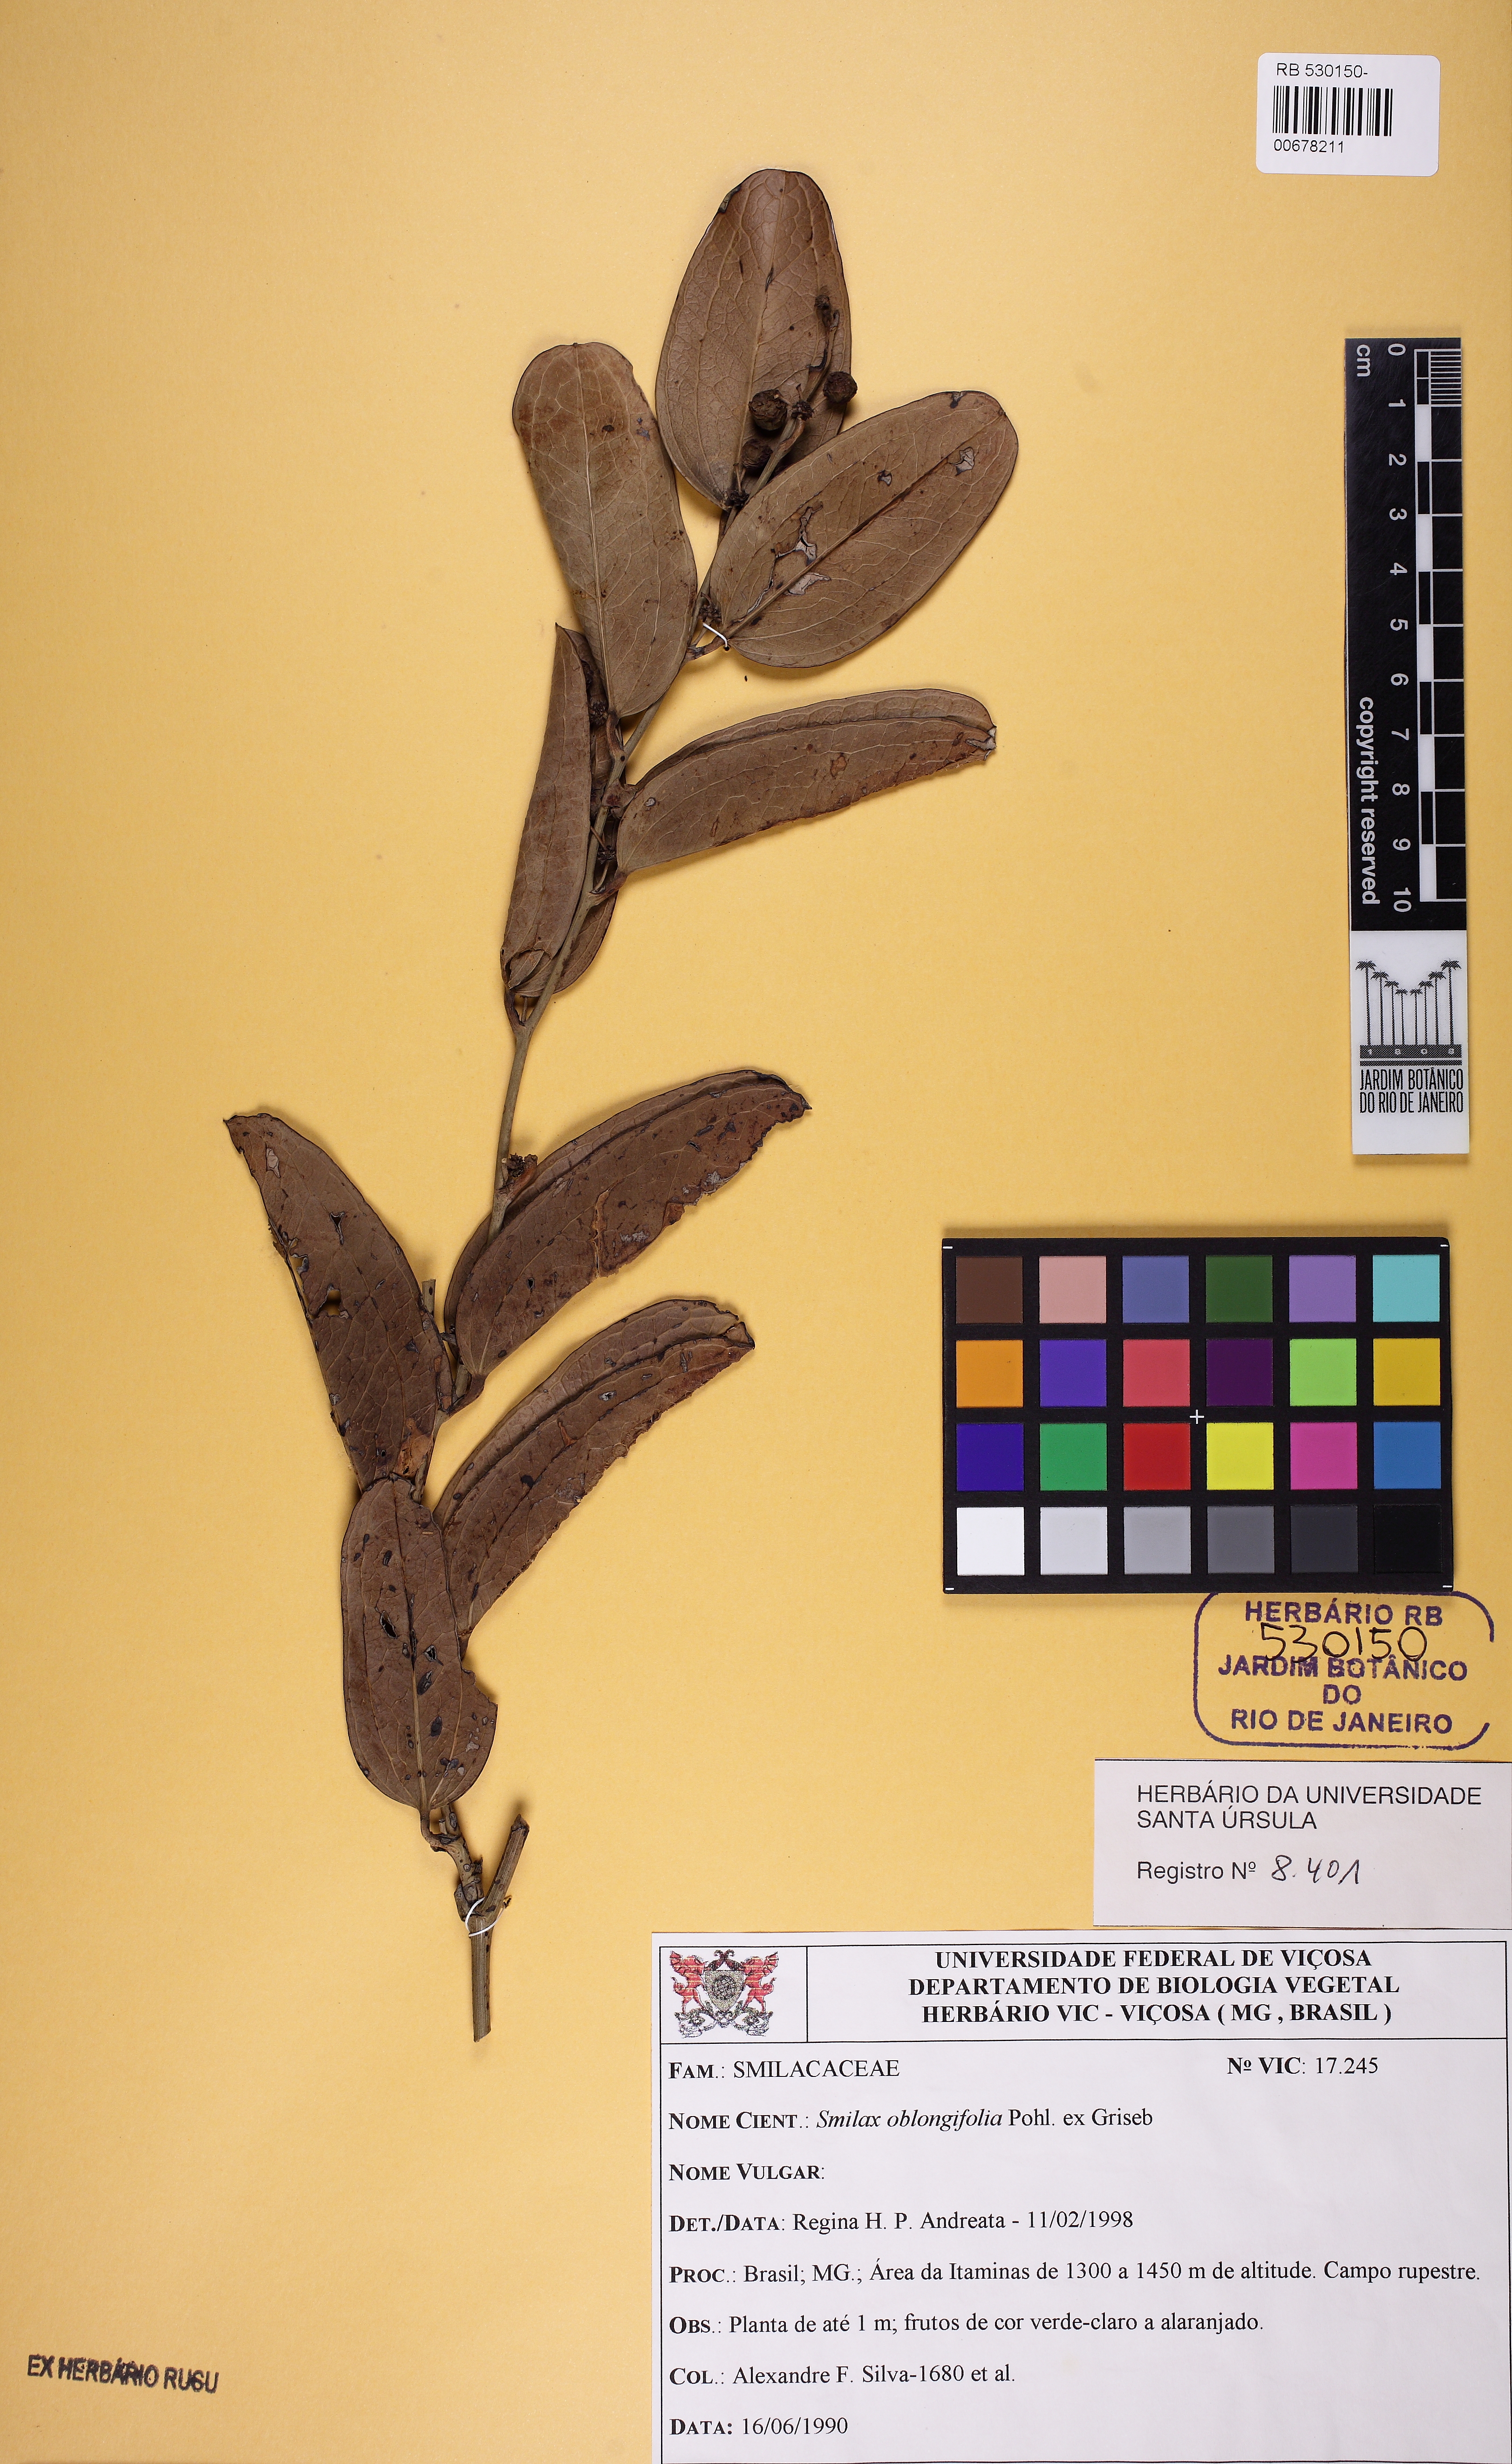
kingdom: Plantae
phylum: Tracheophyta
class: Liliopsida
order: Liliales
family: Smilacaceae
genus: Smilax
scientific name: Smilax oblongifolia
